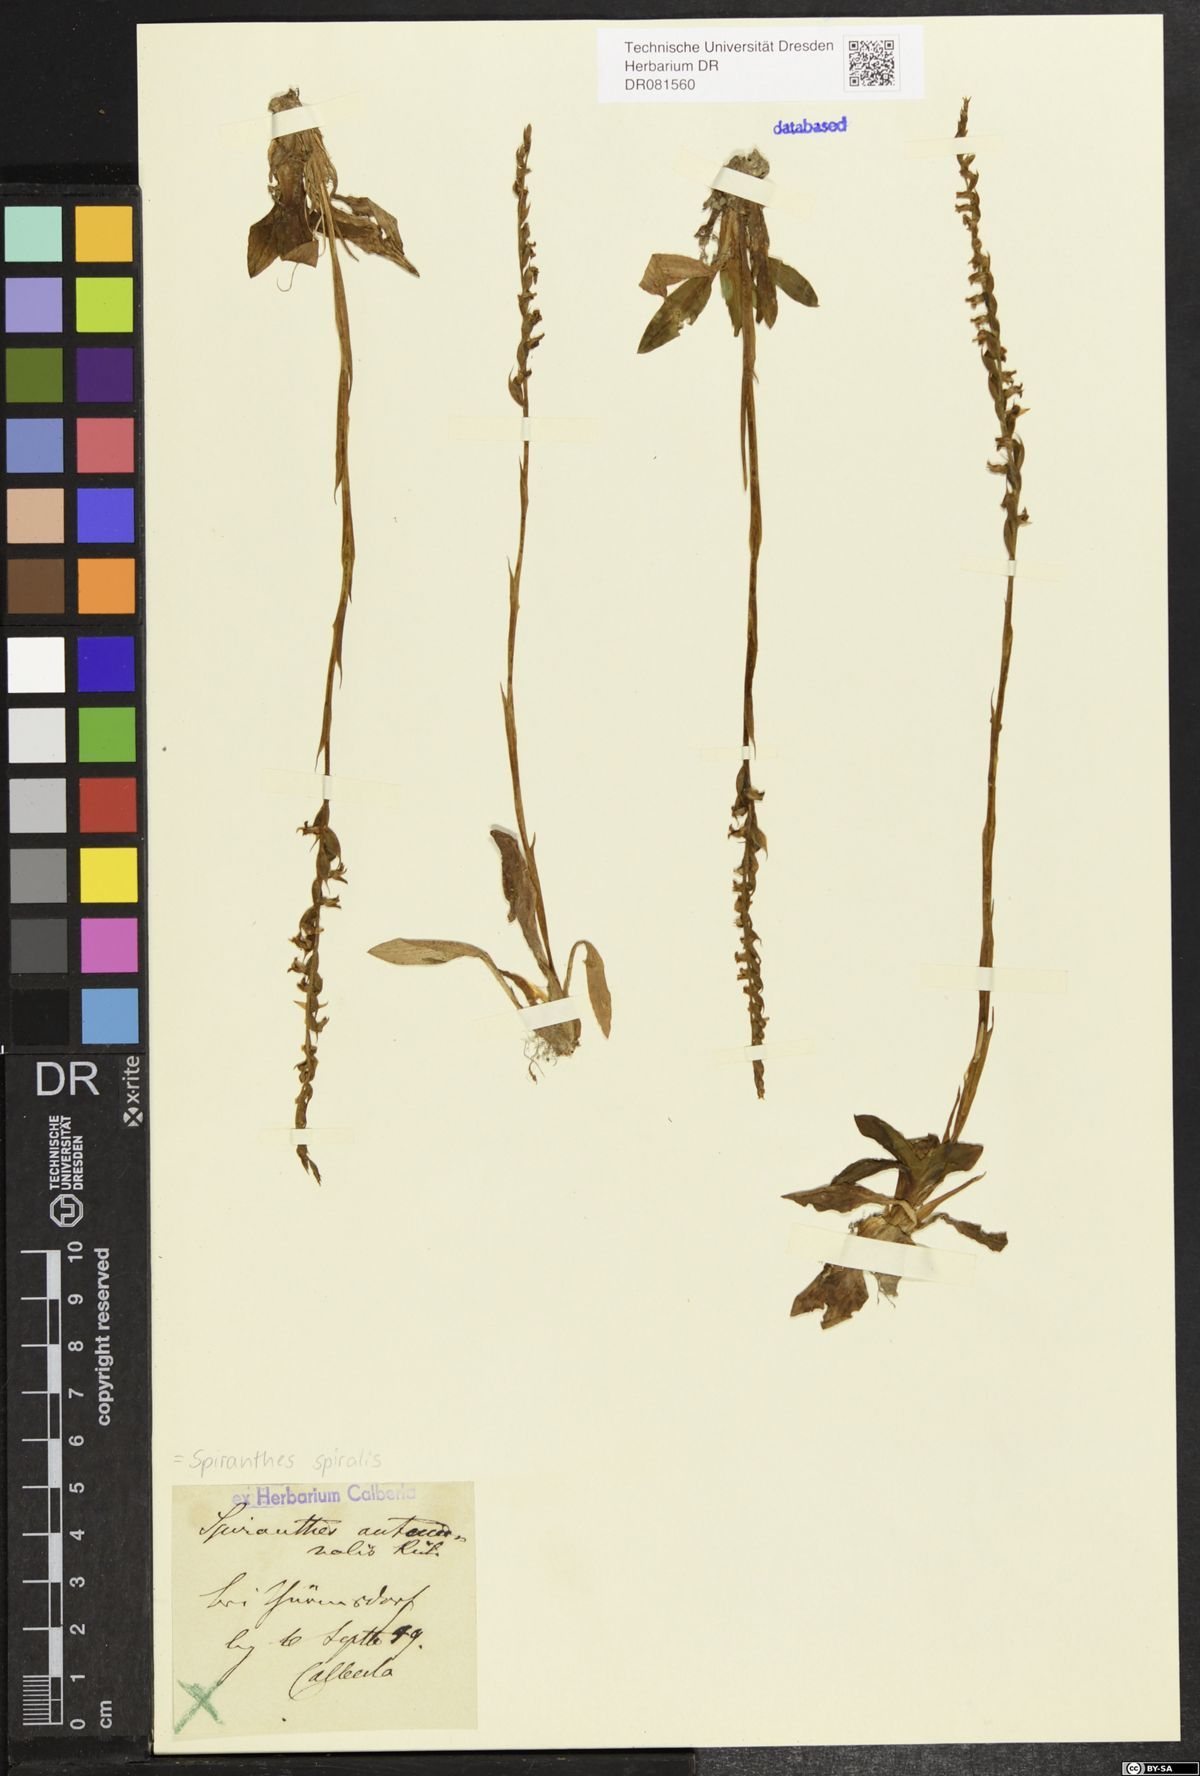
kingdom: Plantae
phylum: Tracheophyta
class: Liliopsida
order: Asparagales
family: Orchidaceae
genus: Spiranthes
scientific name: Spiranthes spiralis
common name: Autumn lady's-tresses
